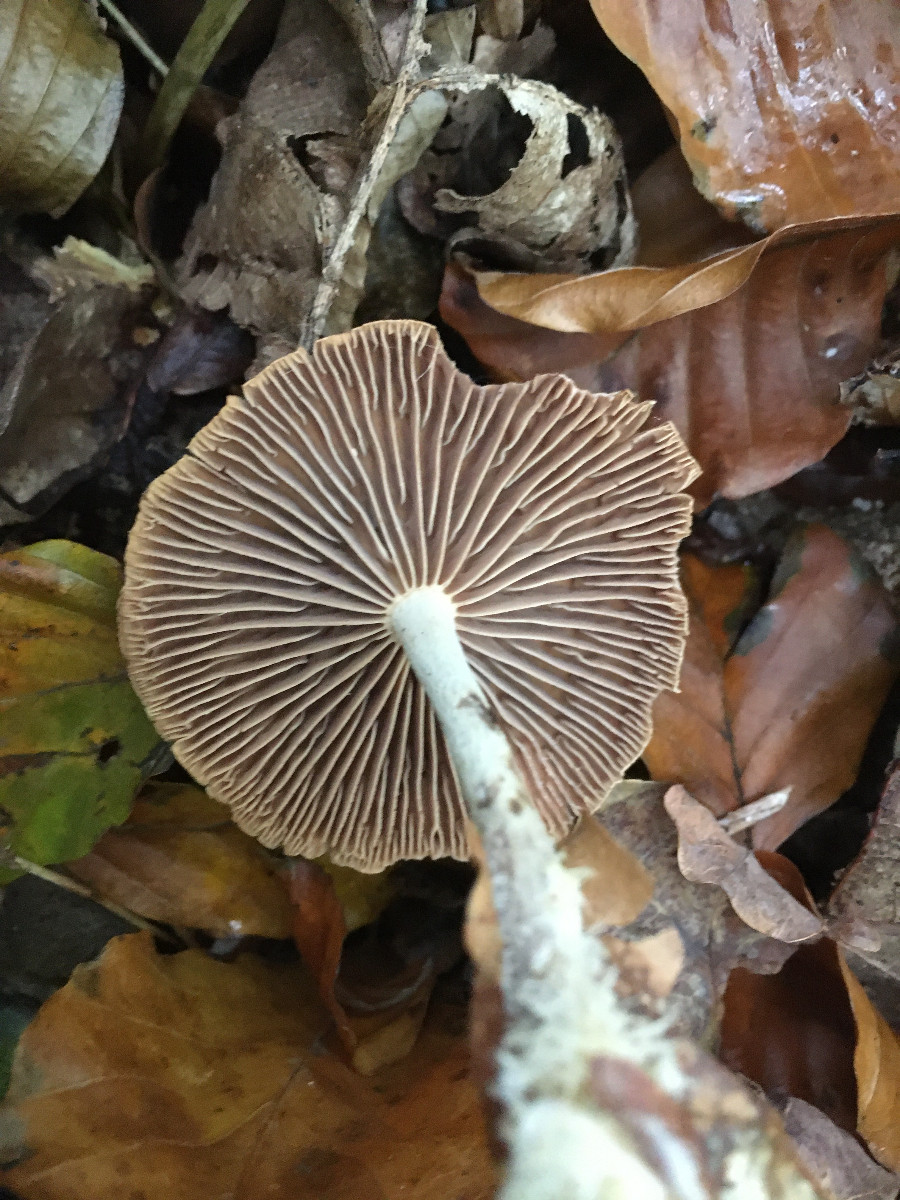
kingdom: Fungi
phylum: Basidiomycota
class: Agaricomycetes
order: Agaricales
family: Omphalotaceae
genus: Collybiopsis
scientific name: Collybiopsis peronata
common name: bestøvlet fladhat
